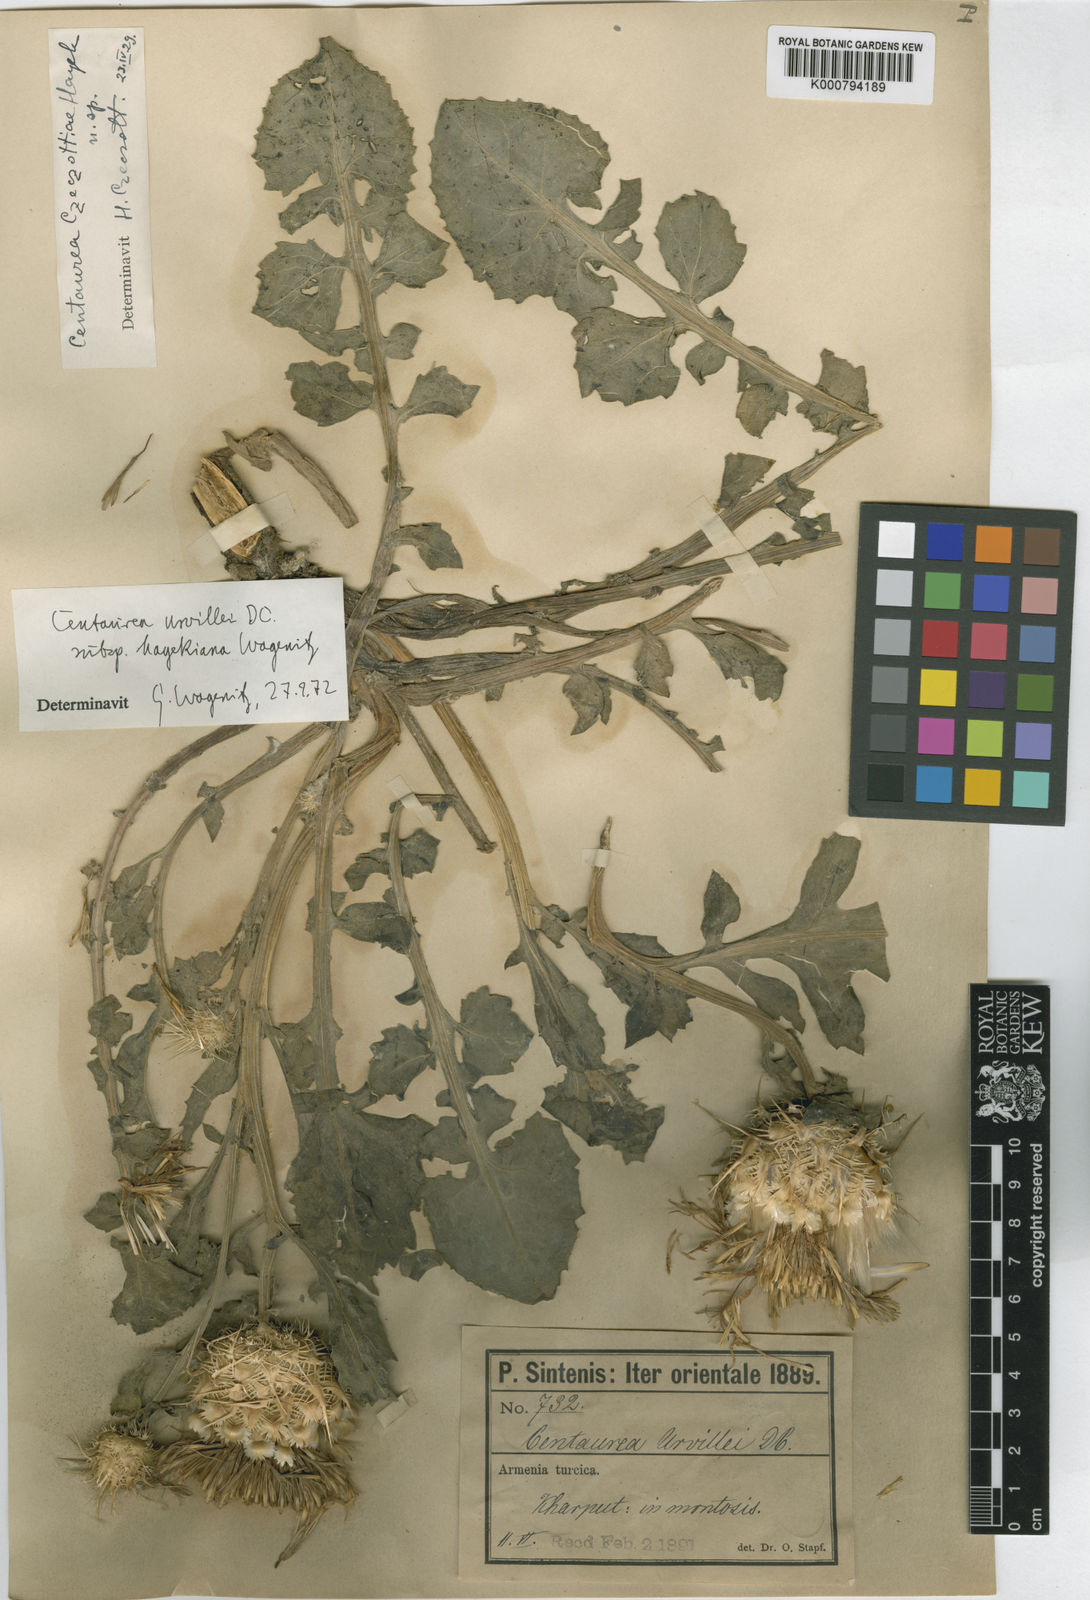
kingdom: Plantae
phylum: Tracheophyta
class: Magnoliopsida
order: Asterales
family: Asteraceae
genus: Centaurea
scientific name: Centaurea urvillei
